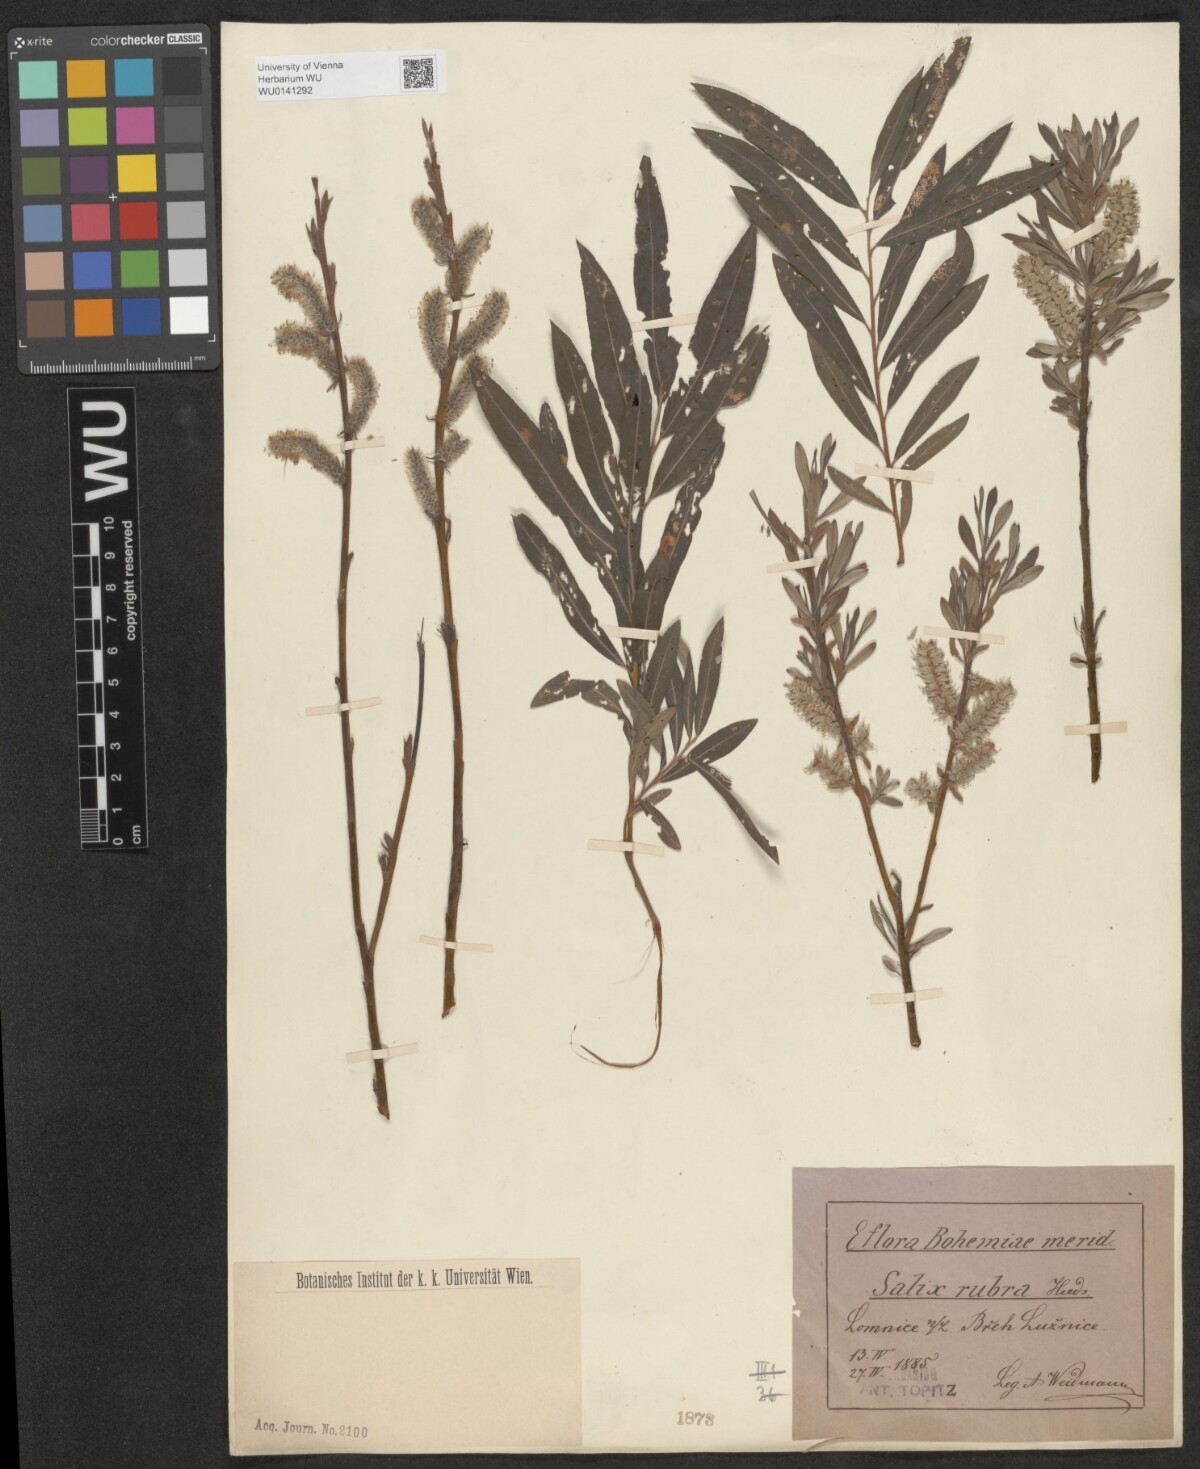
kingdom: Plantae
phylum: Tracheophyta
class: Magnoliopsida
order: Malpighiales
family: Salicaceae
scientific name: Salicaceae
